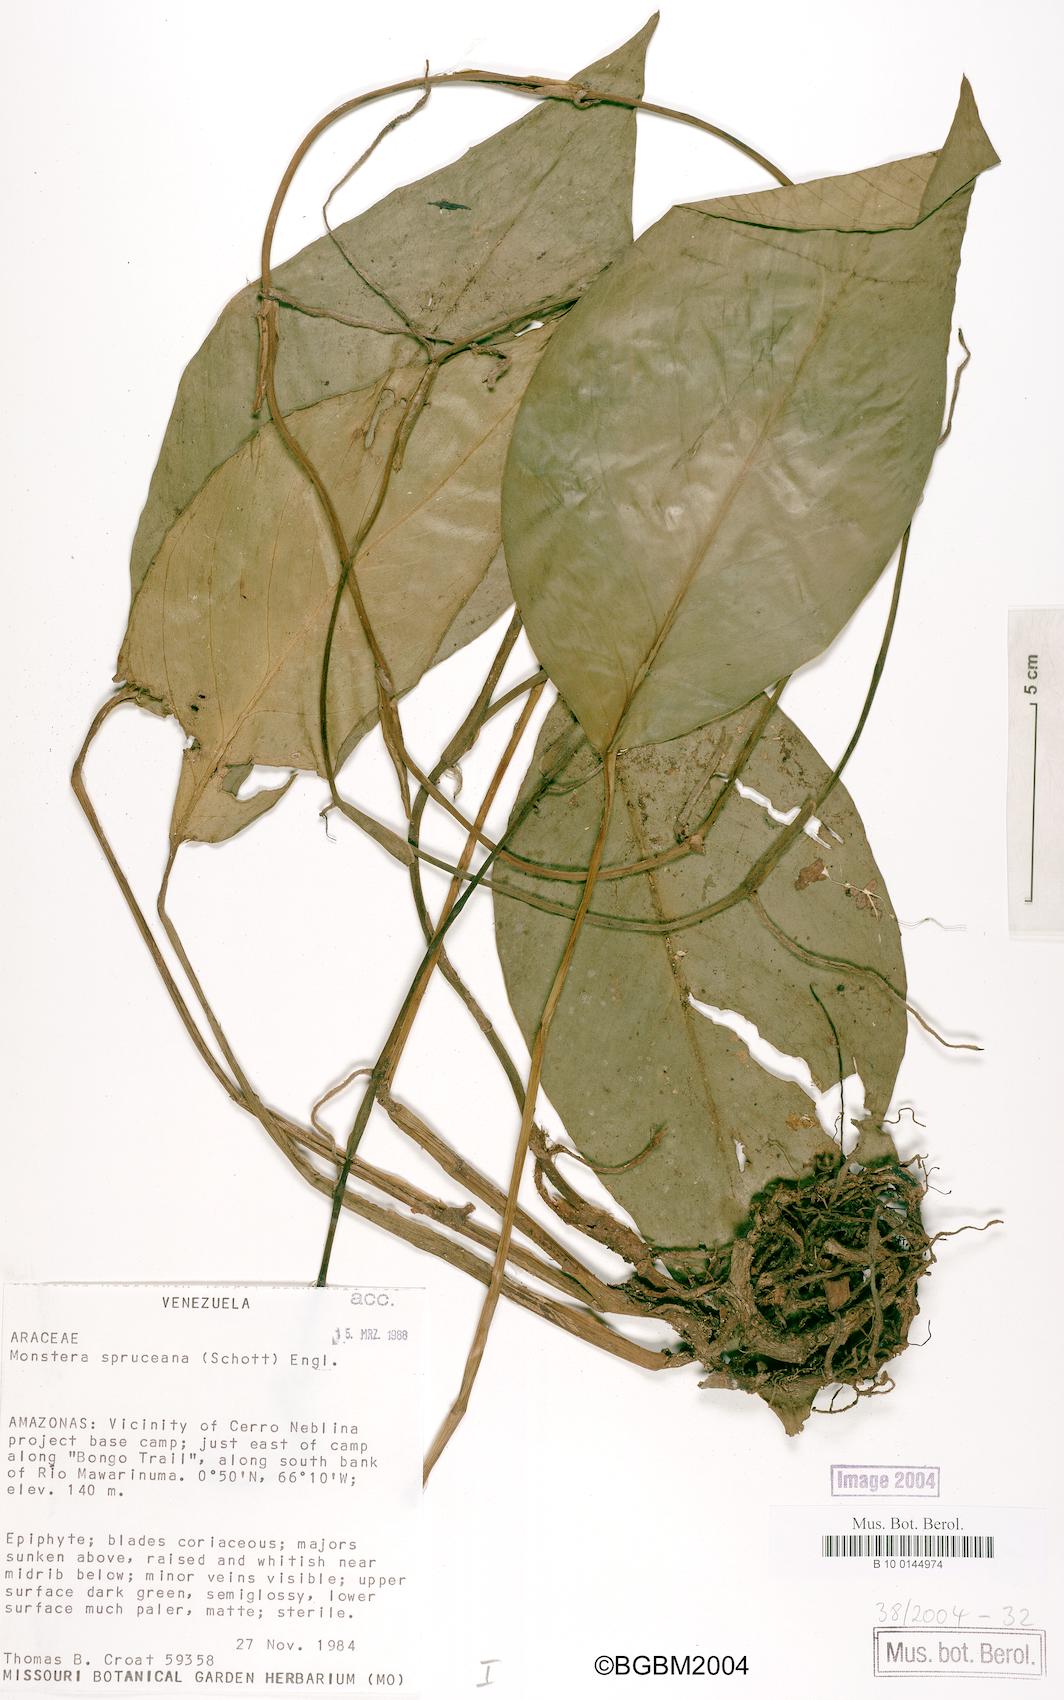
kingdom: Plantae
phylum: Tracheophyta
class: Liliopsida
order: Alismatales
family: Araceae
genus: Monstera
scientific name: Monstera spruceana
